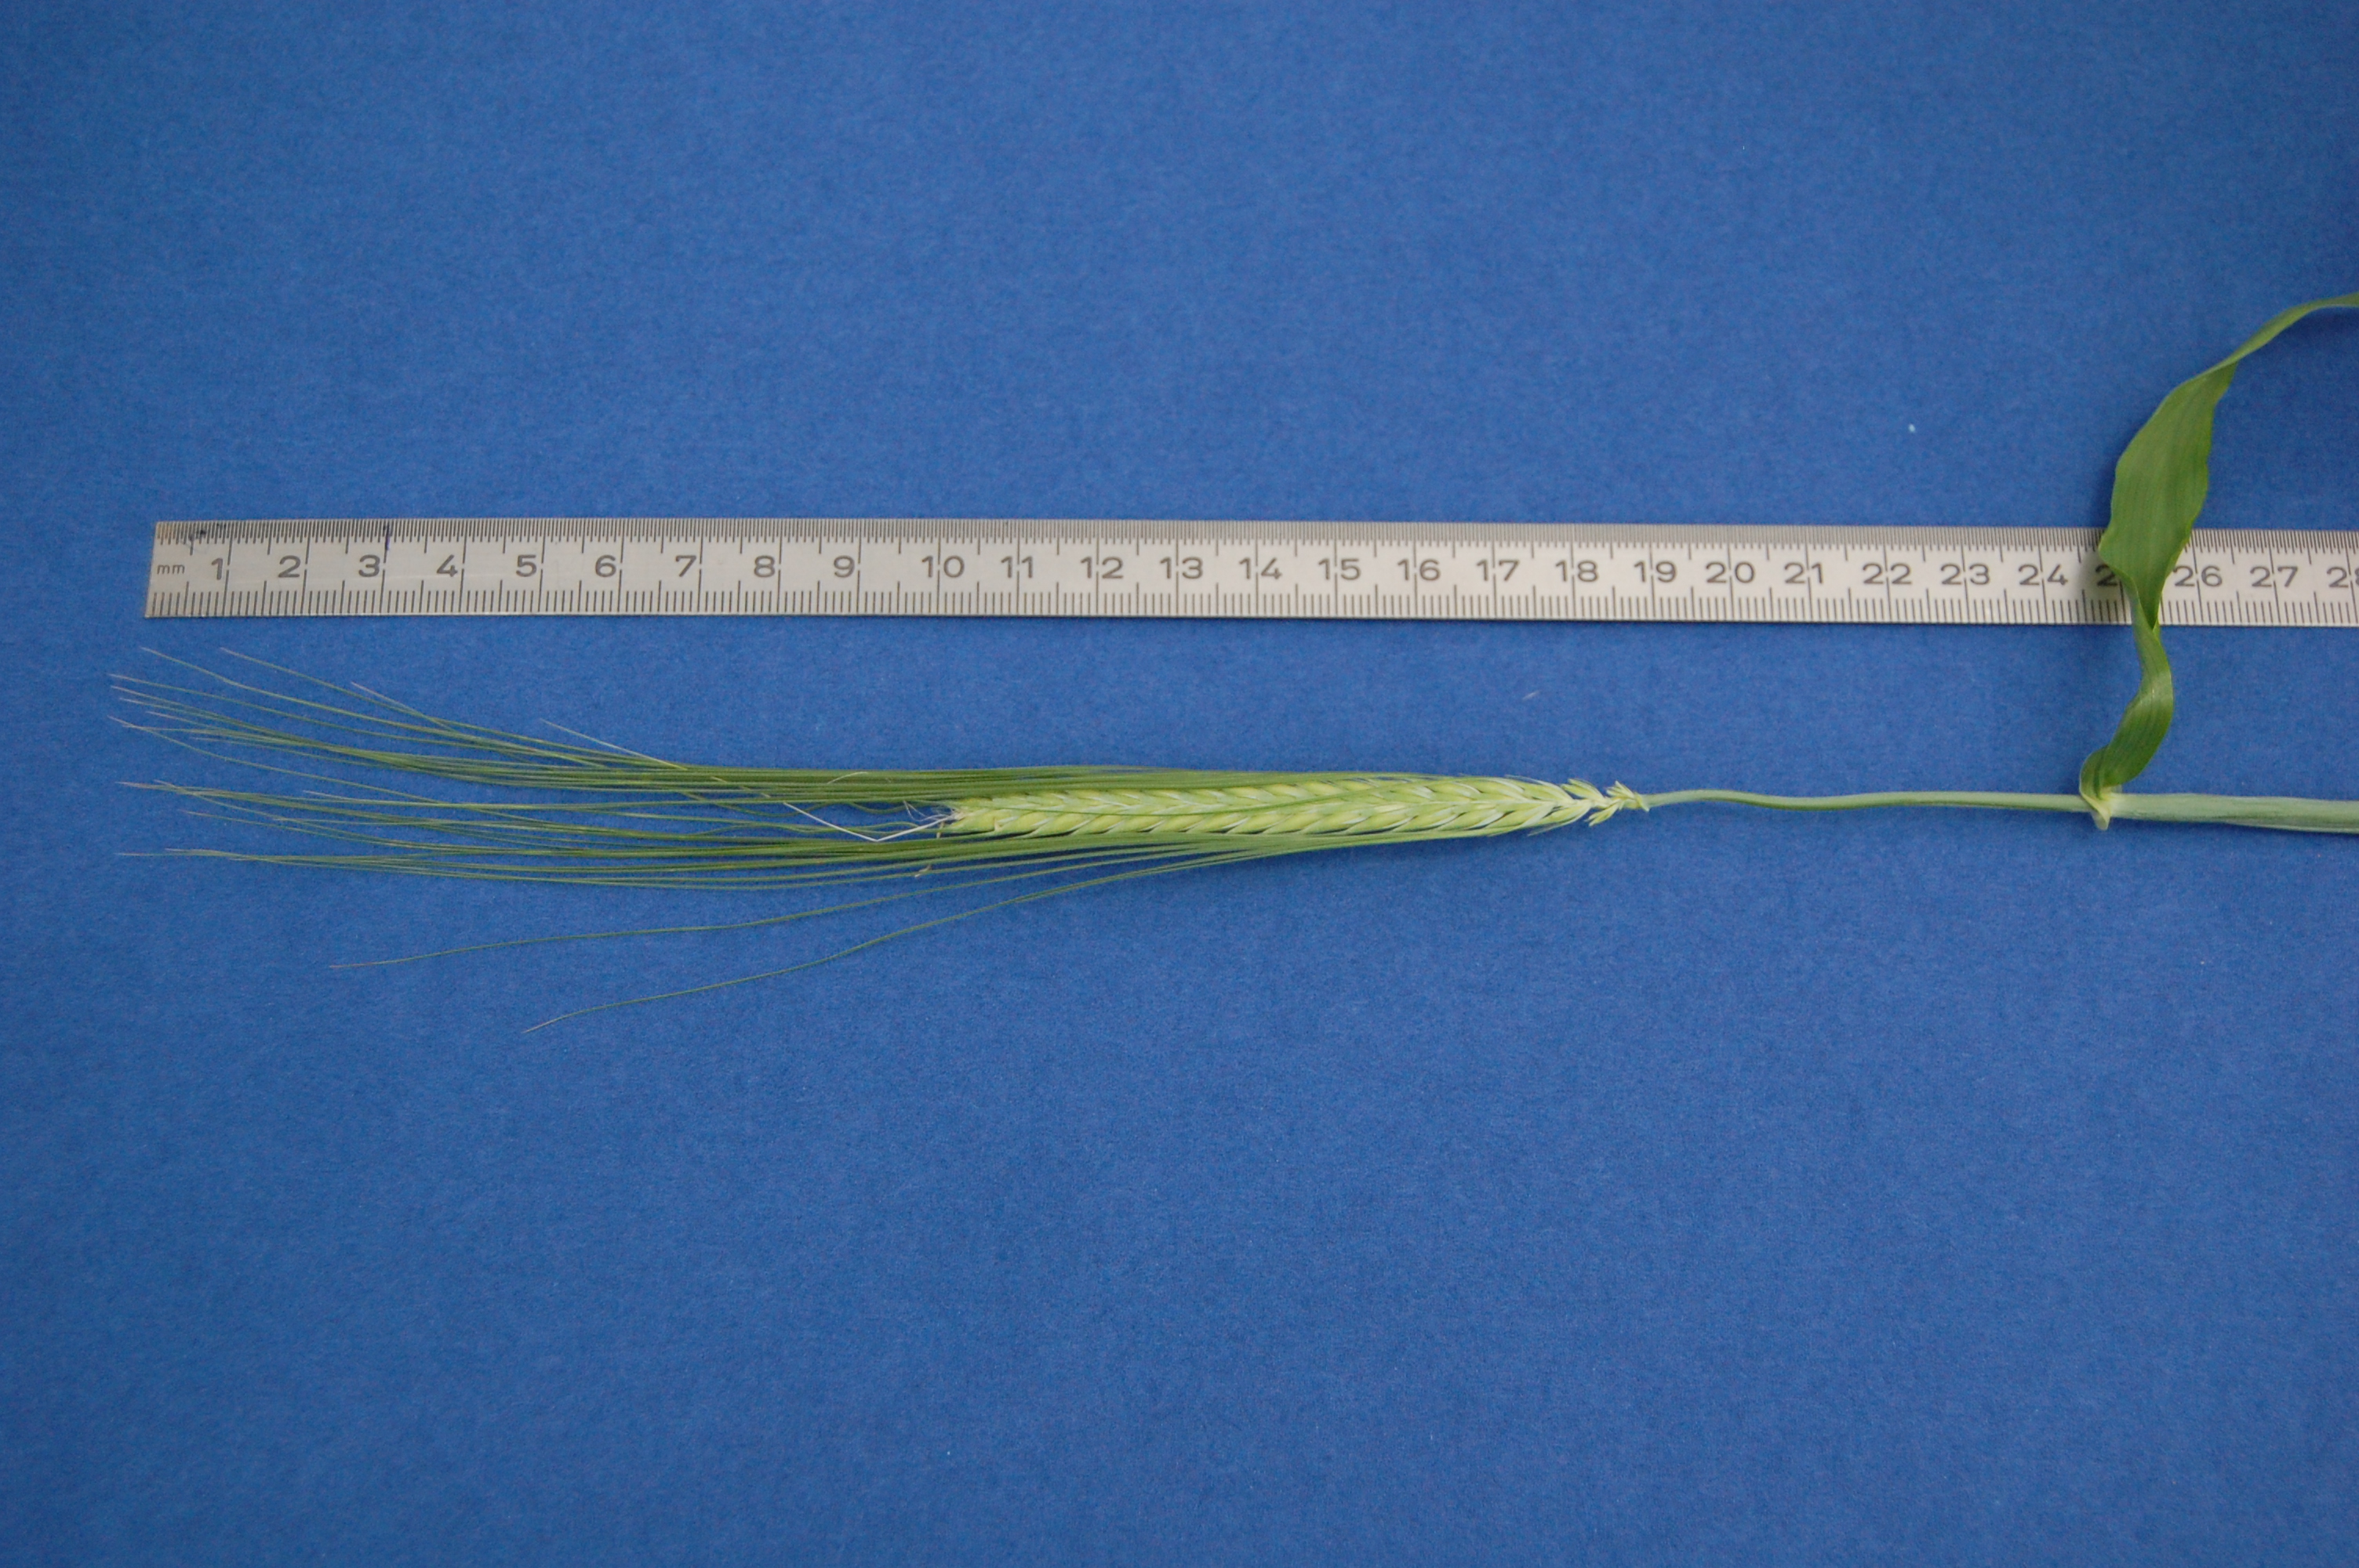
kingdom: Plantae
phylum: Tracheophyta
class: Liliopsida
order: Poales
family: Poaceae
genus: Hordeum
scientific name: Hordeum vulgare
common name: Common barley
